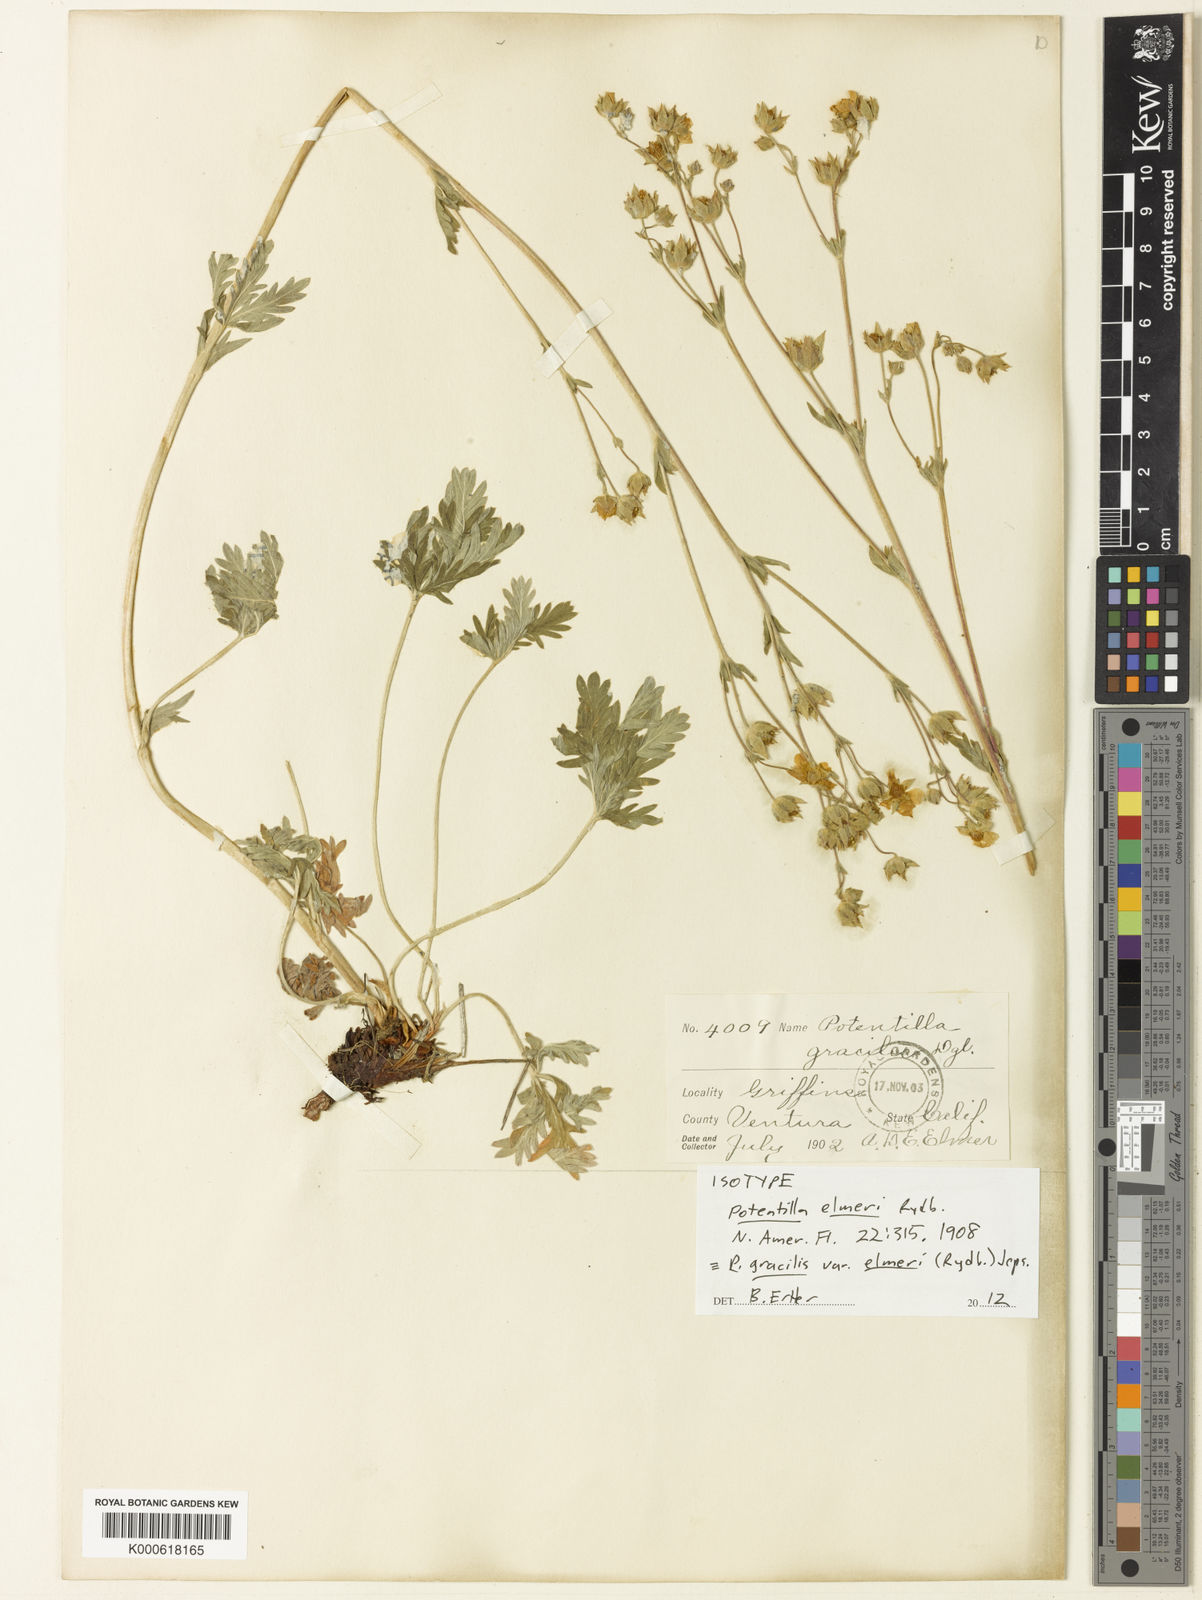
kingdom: Plantae
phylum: Tracheophyta
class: Magnoliopsida
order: Rosales
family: Rosaceae
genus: Potentilla
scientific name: Potentilla gracilis
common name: Graceful cinquefoil
